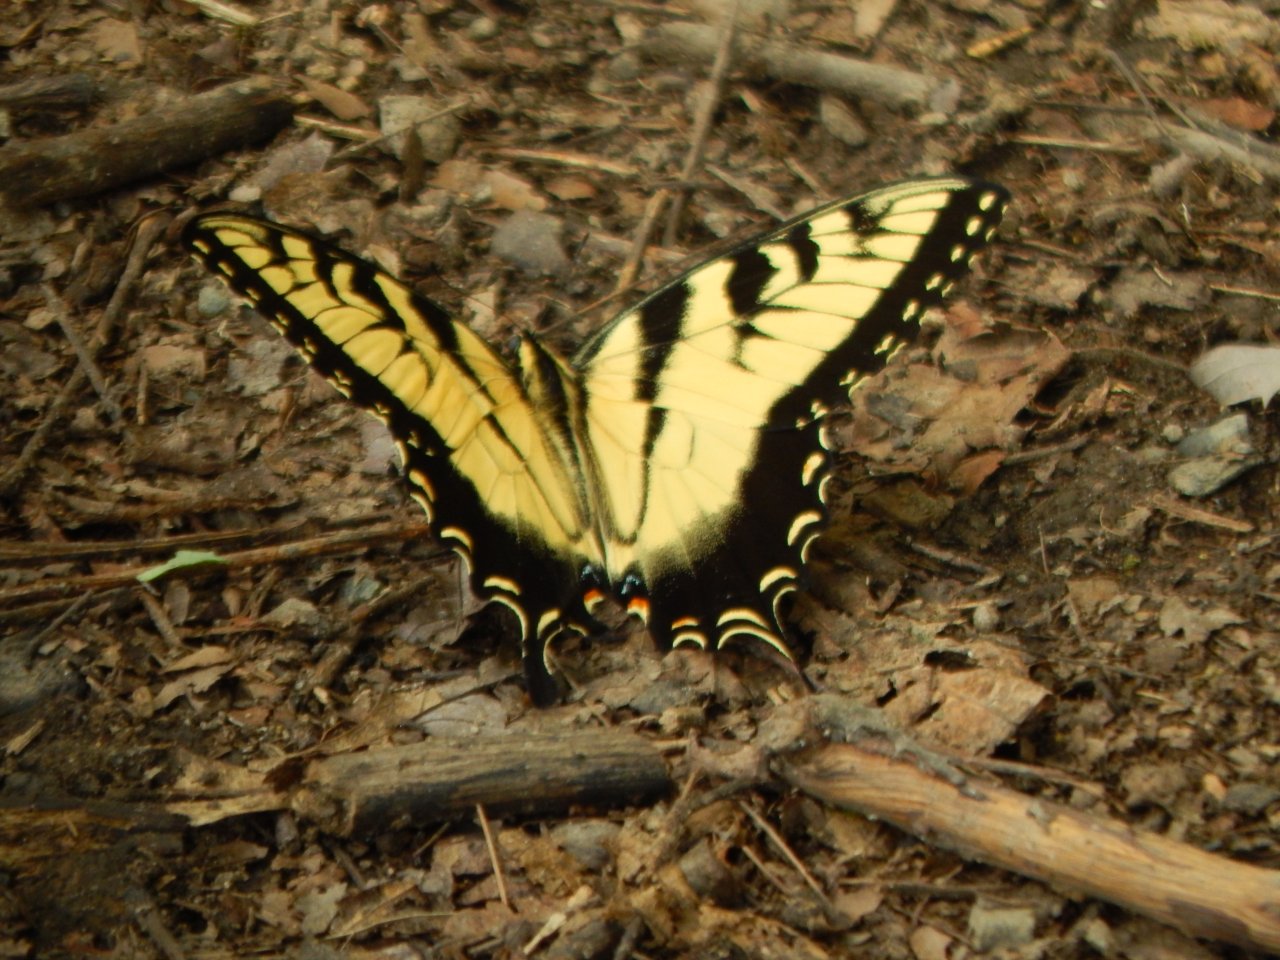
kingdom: Animalia
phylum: Arthropoda
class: Insecta
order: Lepidoptera
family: Papilionidae
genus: Pterourus
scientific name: Pterourus glaucus
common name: Eastern Tiger Swallowtail
